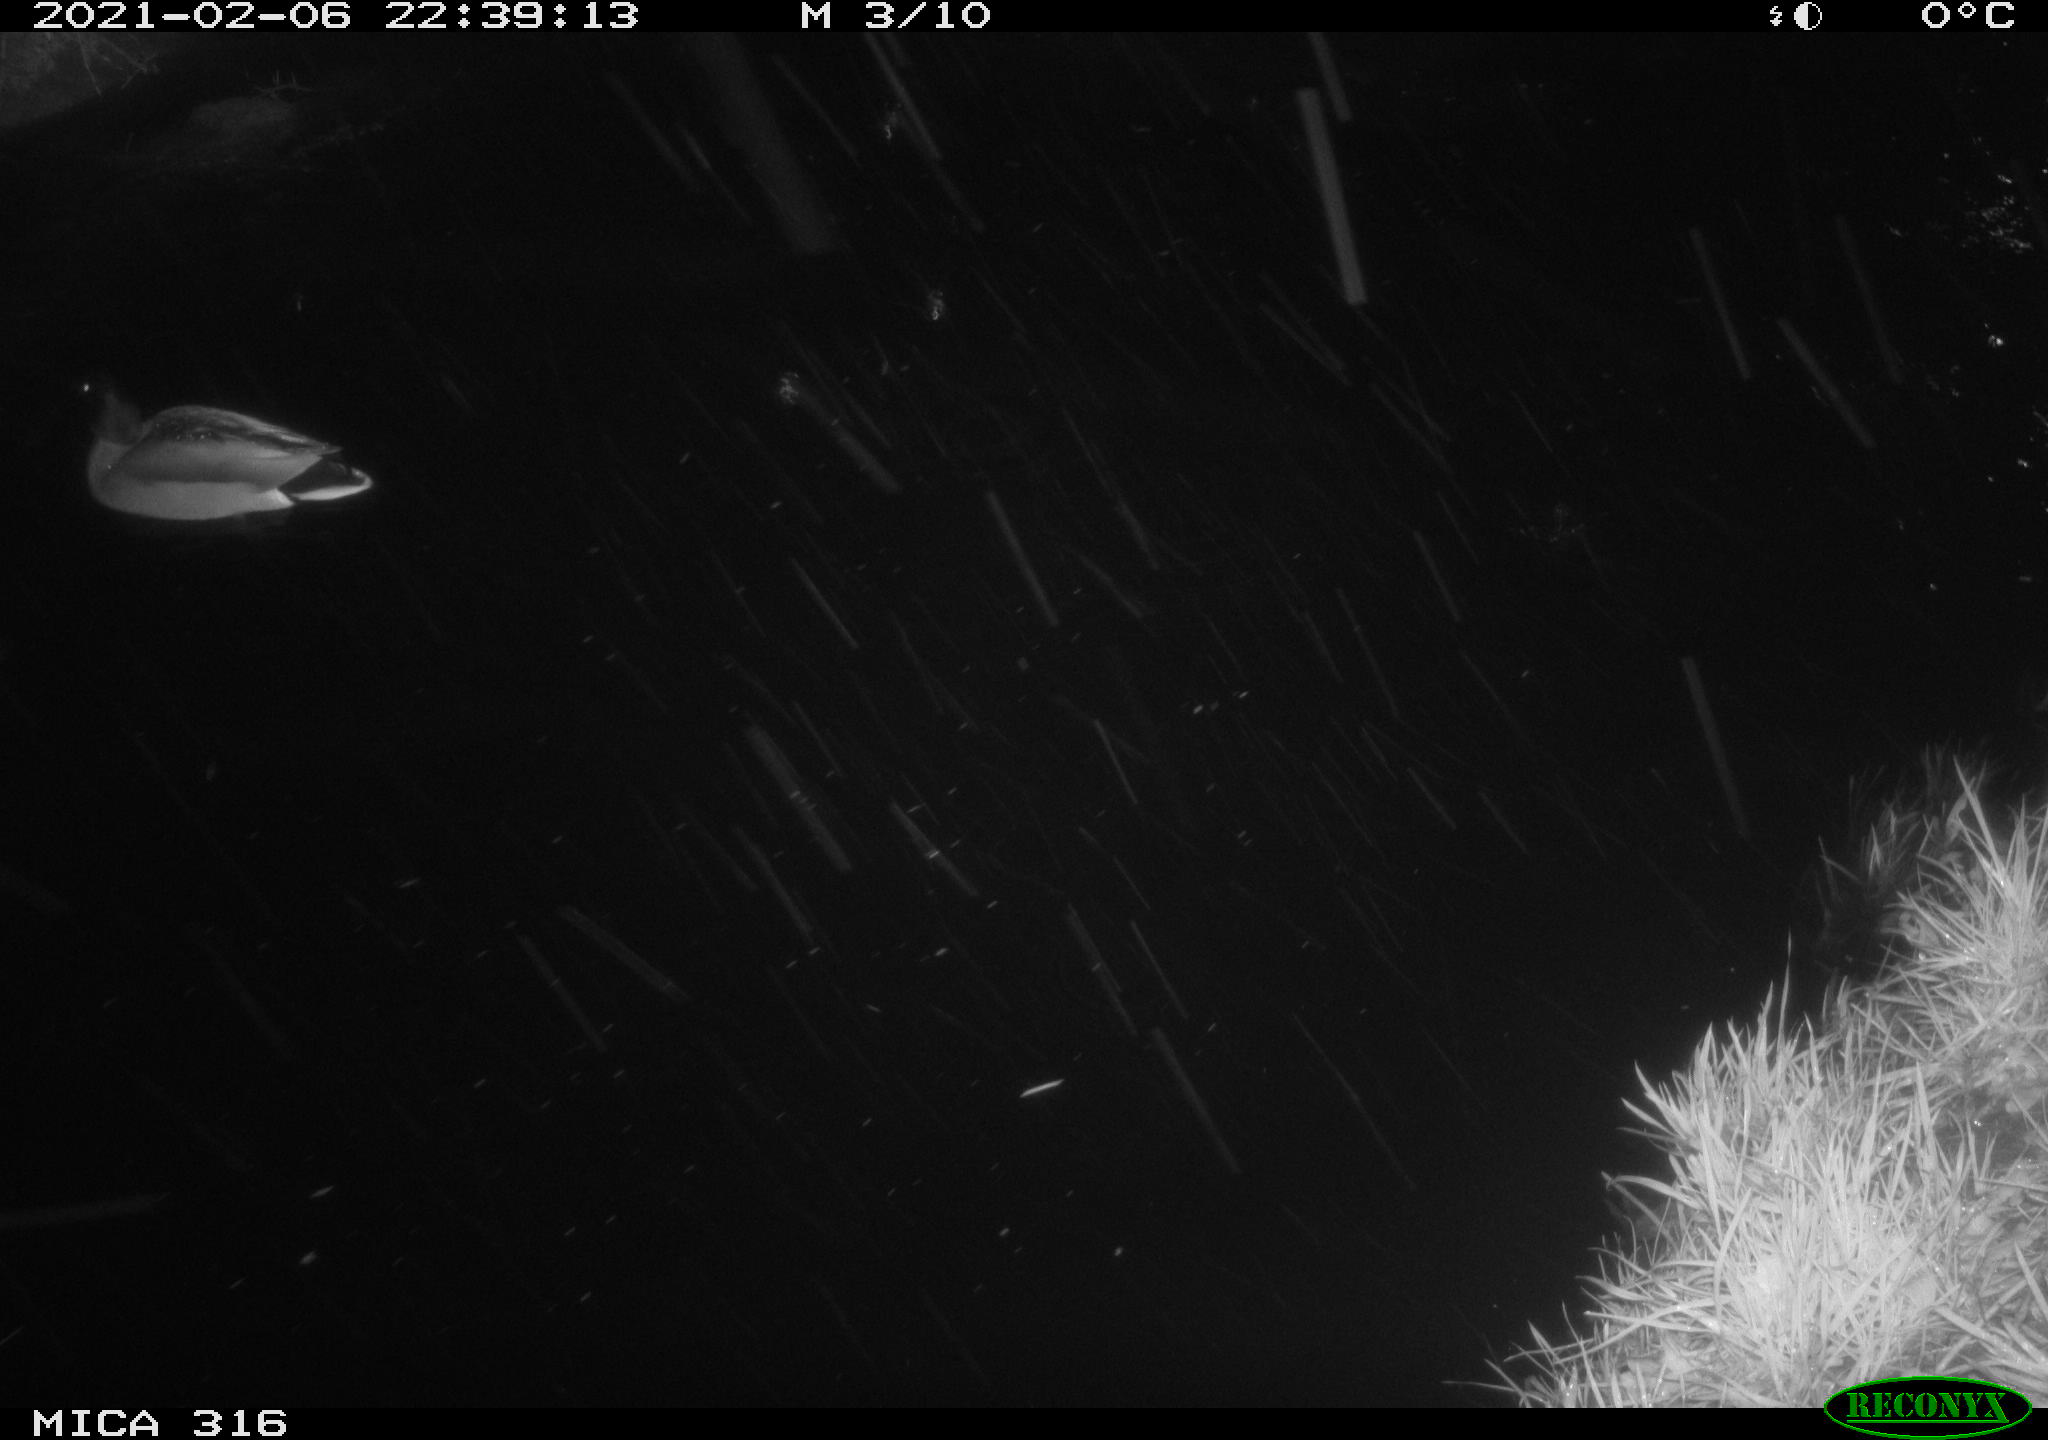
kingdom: Animalia
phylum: Chordata
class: Aves
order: Anseriformes
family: Anatidae
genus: Anas
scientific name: Anas platyrhynchos
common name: Mallard
